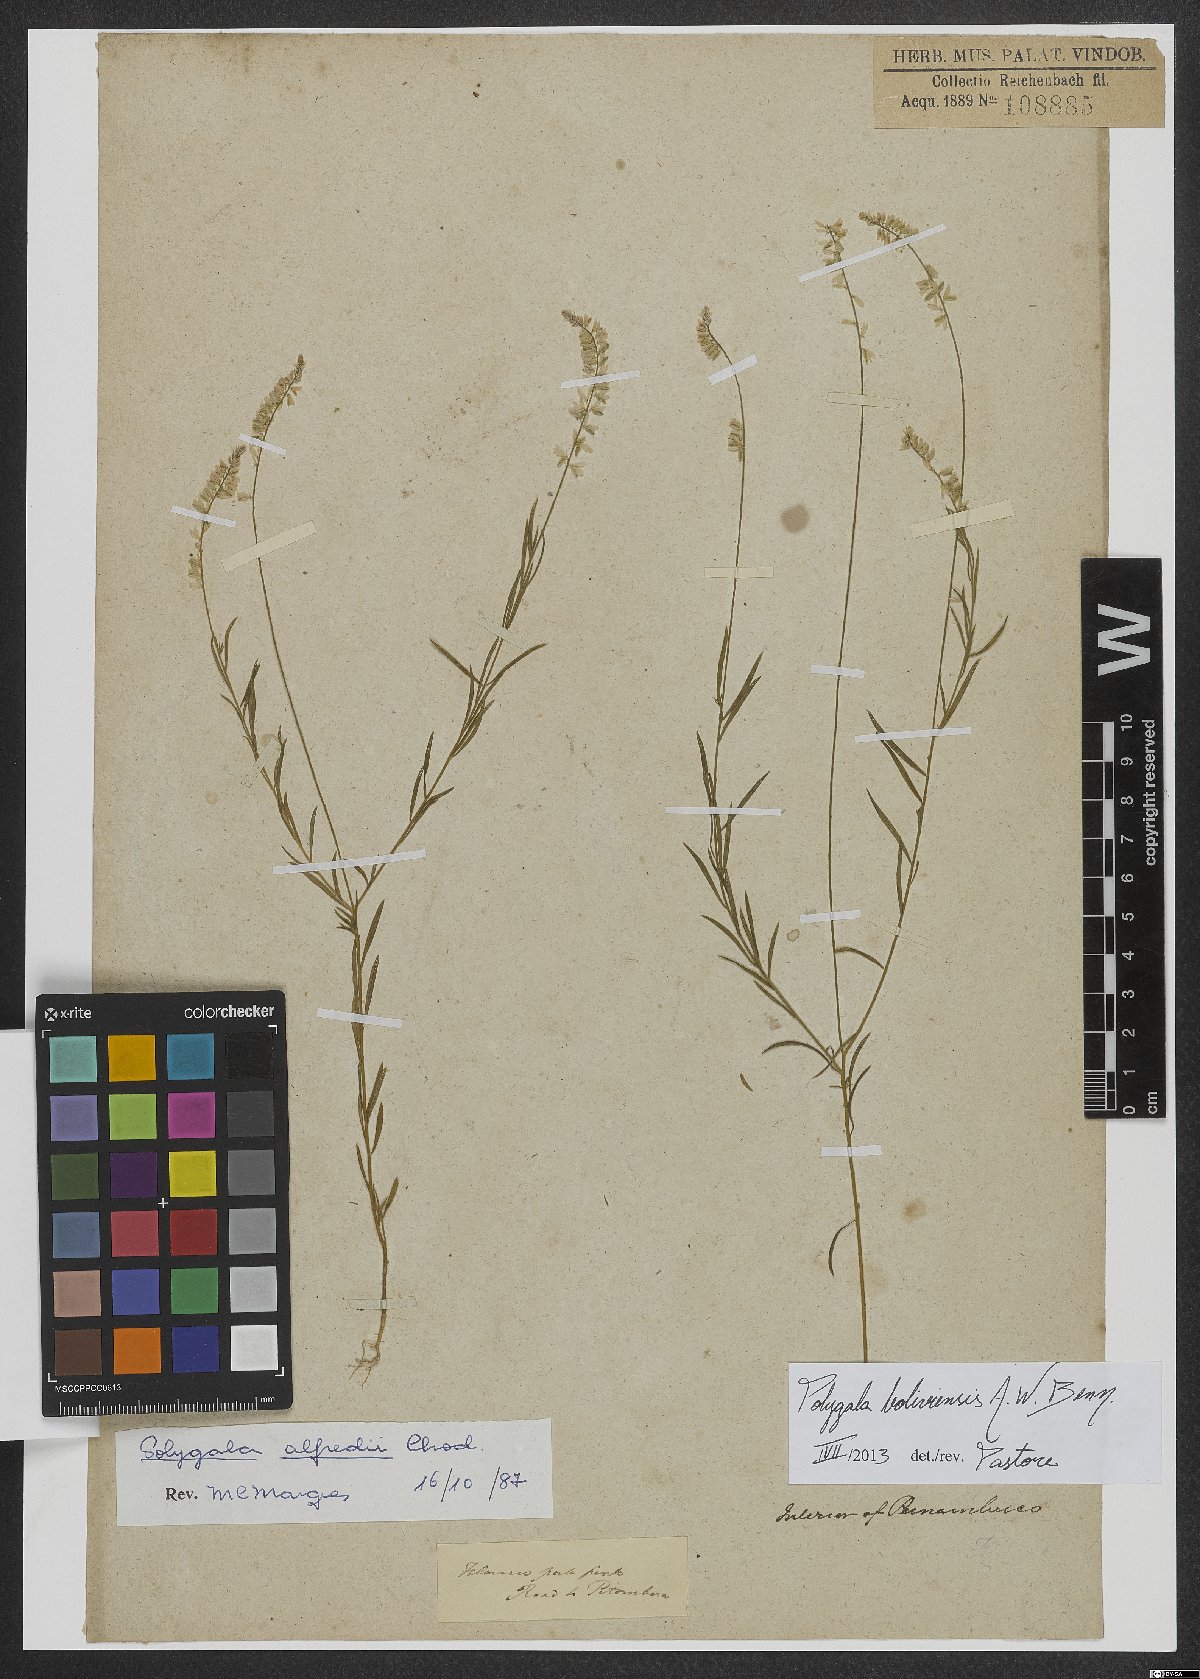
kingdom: Plantae
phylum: Tracheophyta
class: Magnoliopsida
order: Fabales
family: Polygalaceae
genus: Polygala
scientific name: Polygala boliviensis
